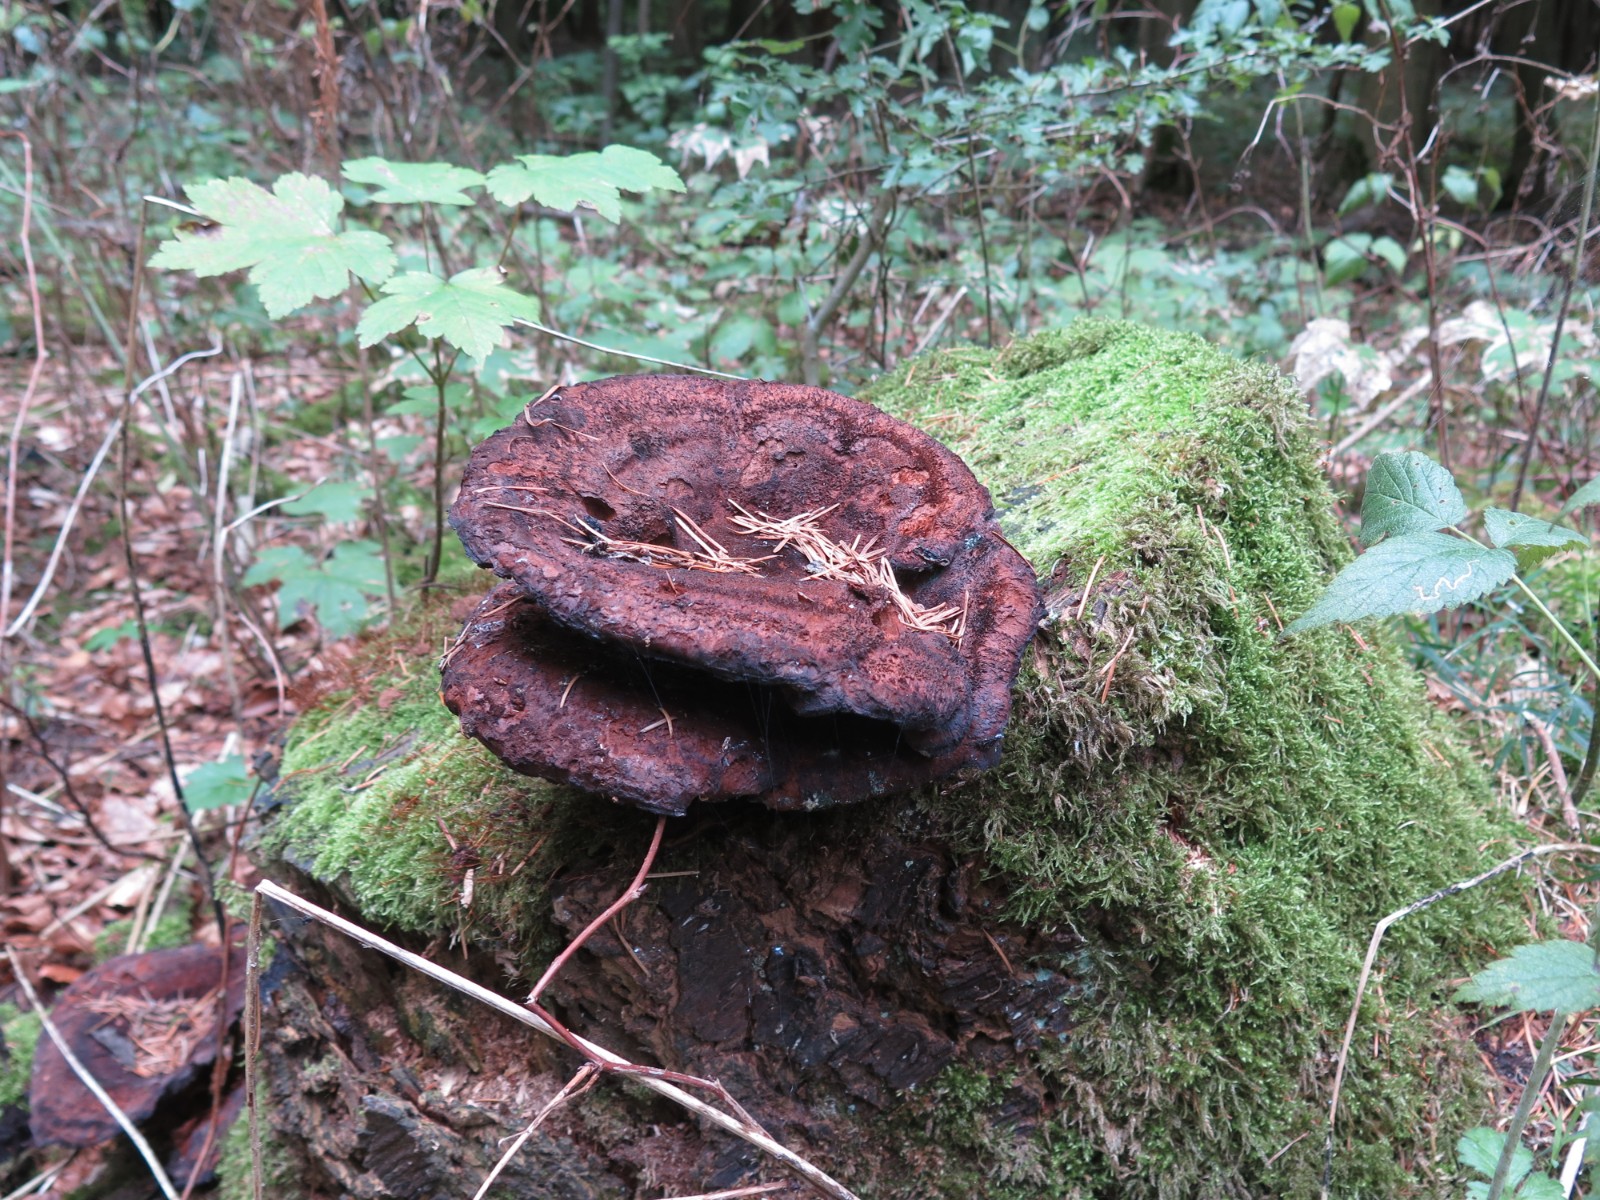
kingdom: Fungi
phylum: Basidiomycota
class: Agaricomycetes
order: Polyporales
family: Laetiporaceae
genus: Phaeolus
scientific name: Phaeolus schweinitzii
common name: brunporesvamp
